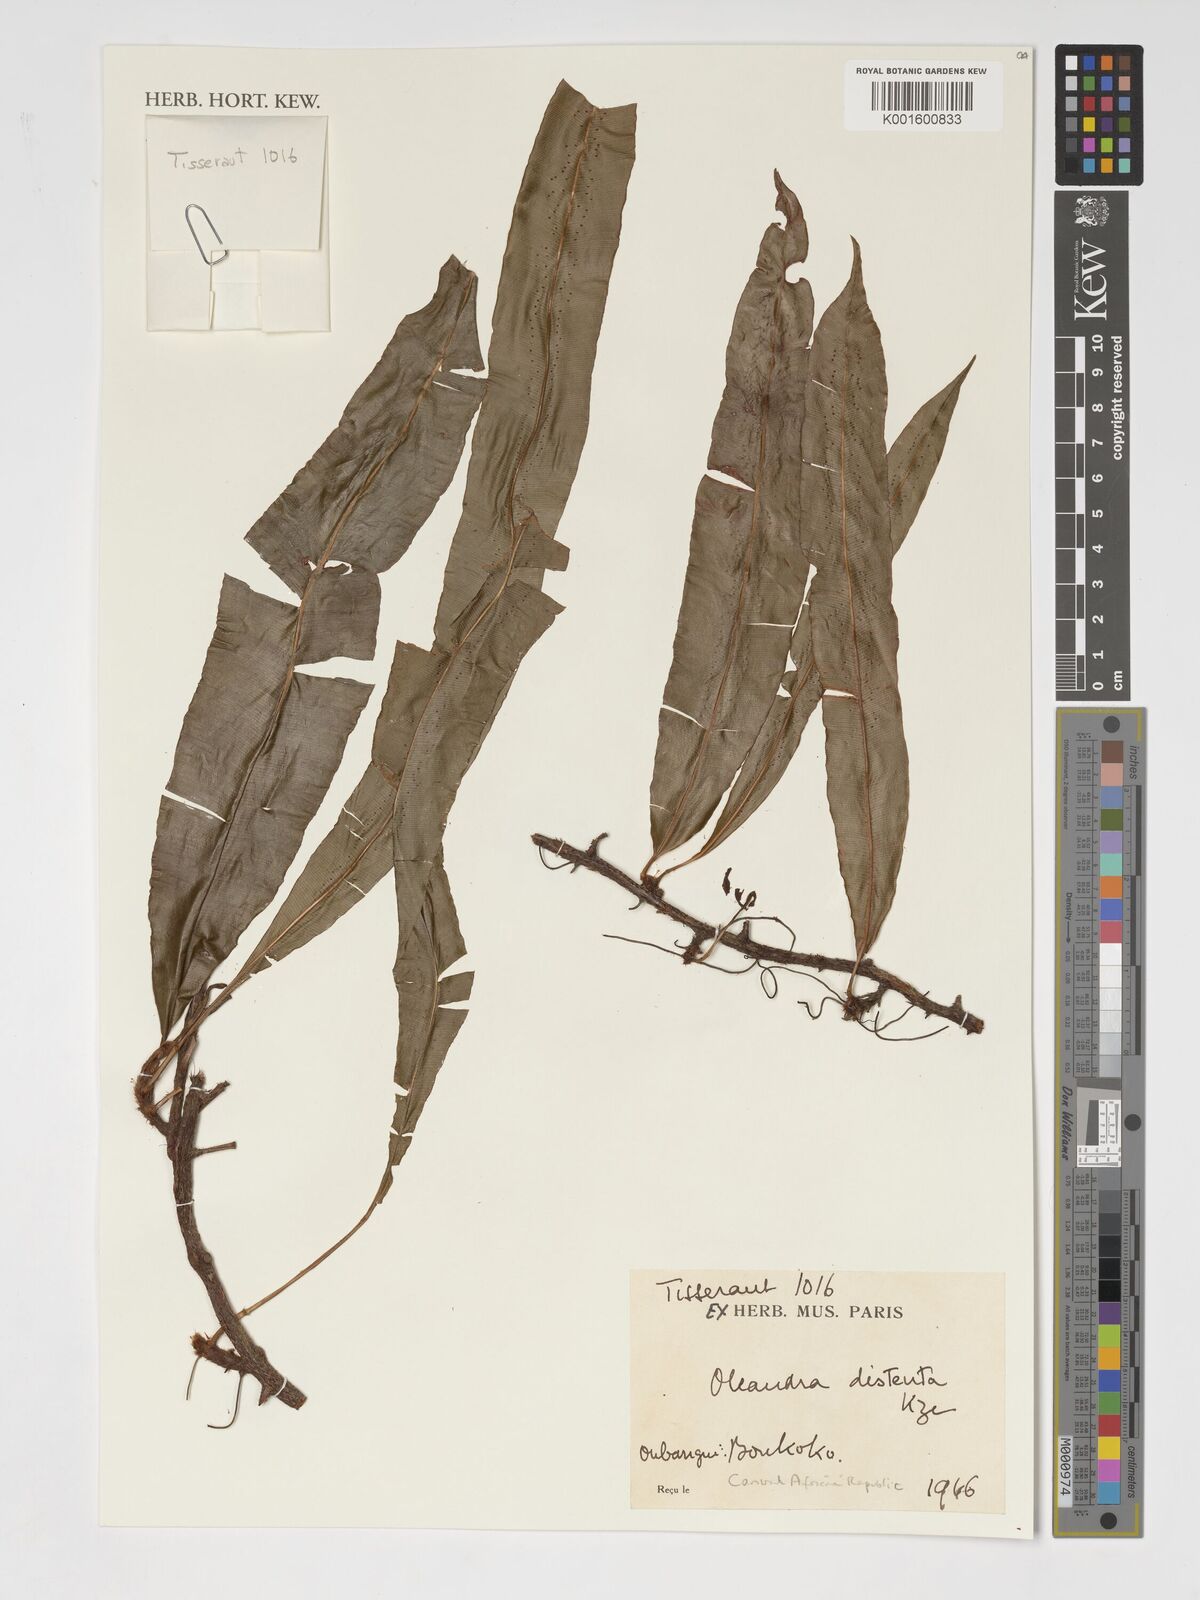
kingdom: Plantae
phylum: Tracheophyta
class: Polypodiopsida
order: Polypodiales
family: Oleandraceae
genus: Oleandra
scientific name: Oleandra distenta
